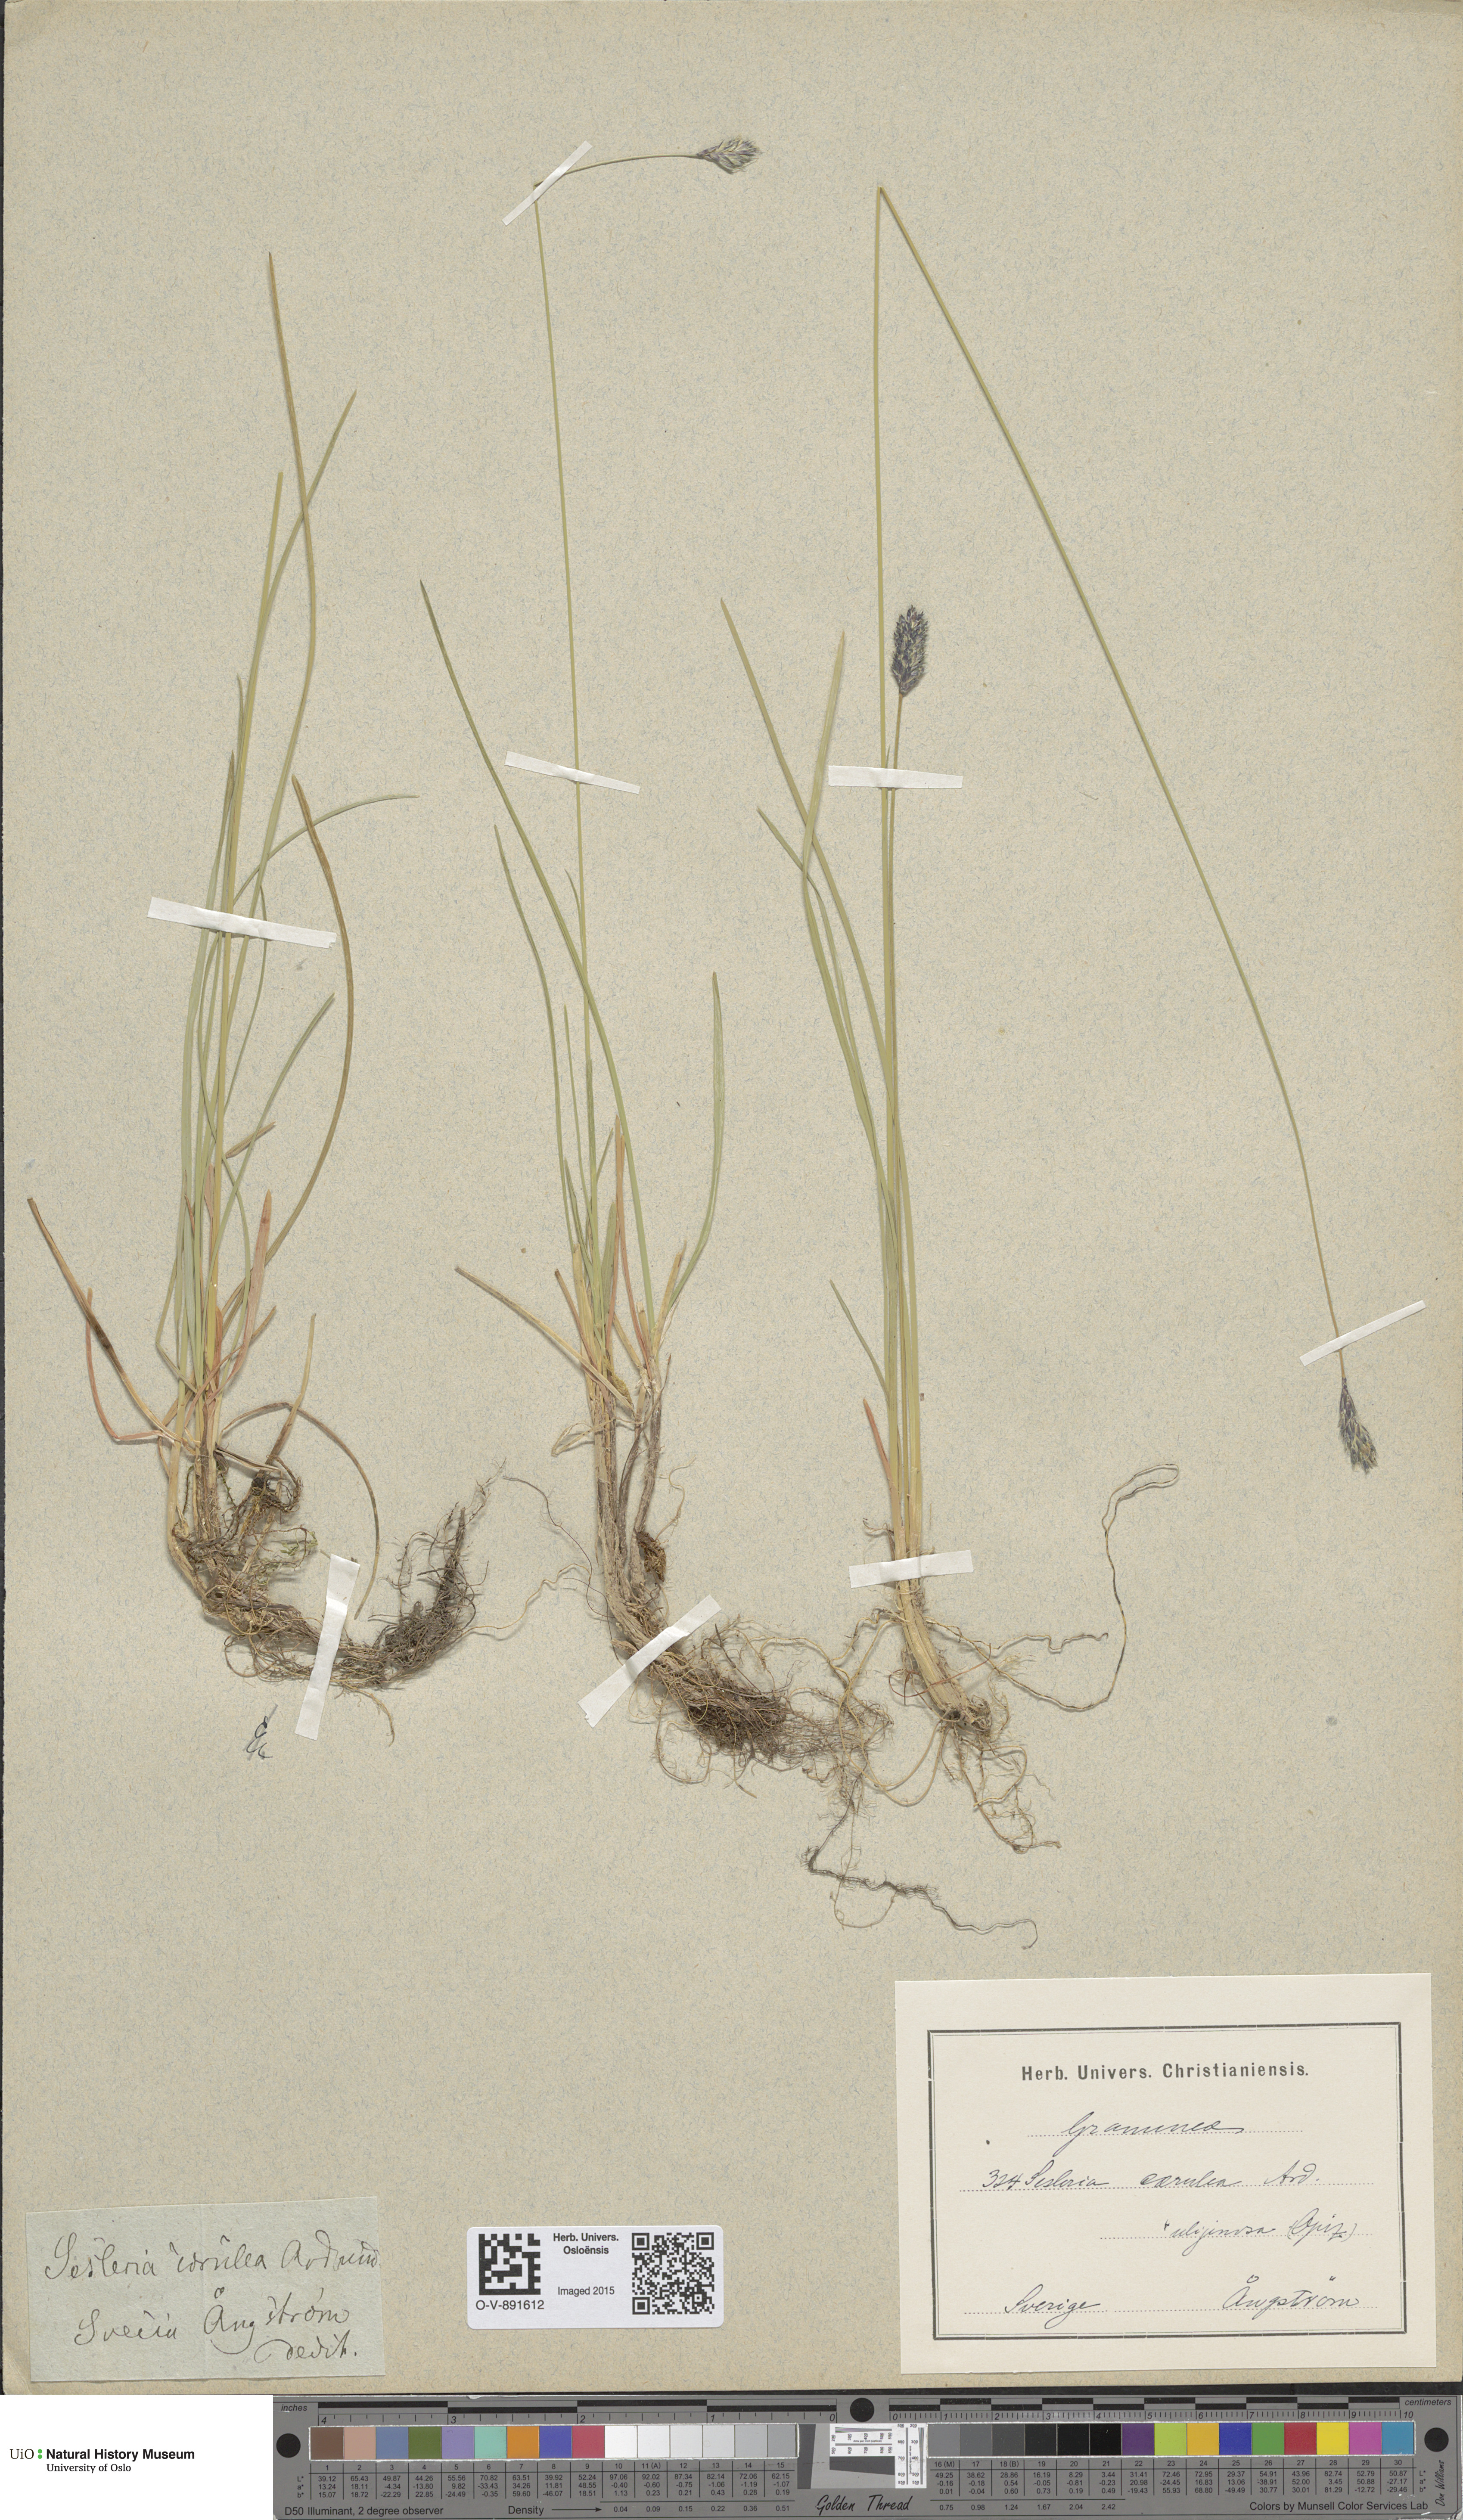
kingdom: Plantae
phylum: Tracheophyta
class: Liliopsida
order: Poales
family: Poaceae
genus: Sesleria
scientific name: Sesleria uliginosa
